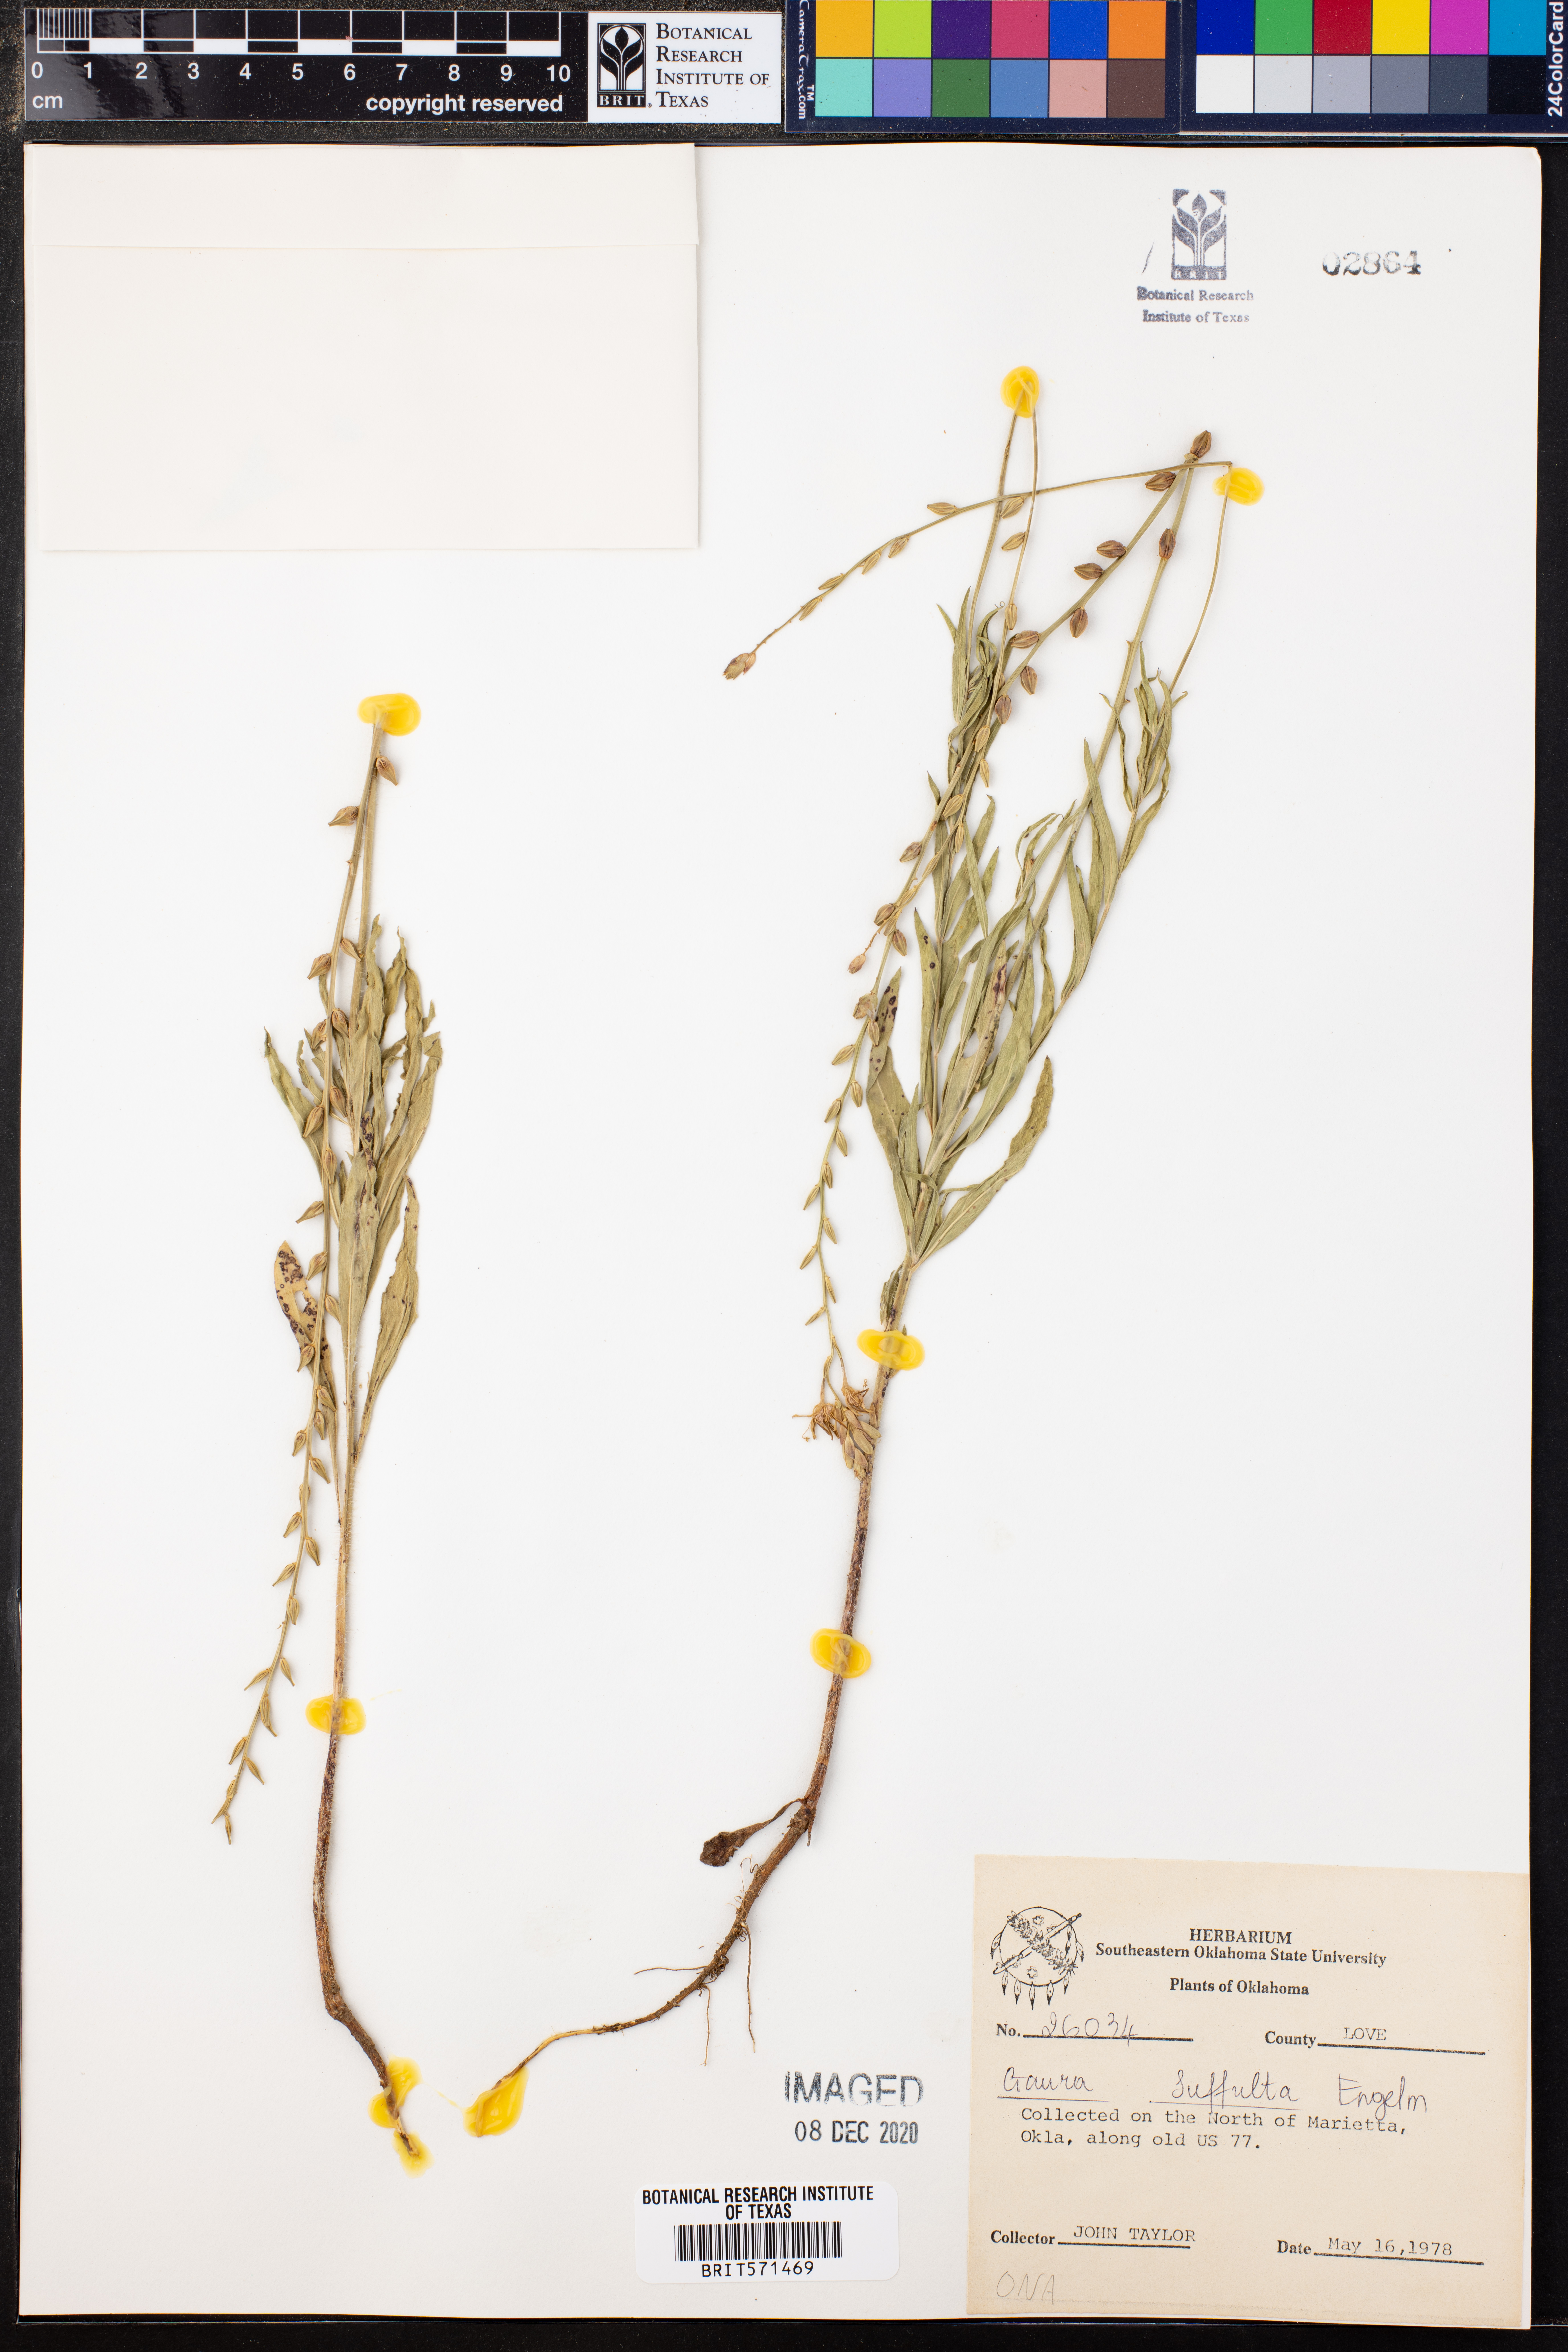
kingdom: Plantae
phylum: Tracheophyta
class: Magnoliopsida
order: Myrtales
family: Onagraceae
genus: Oenothera
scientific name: Oenothera Gaura suffulta
